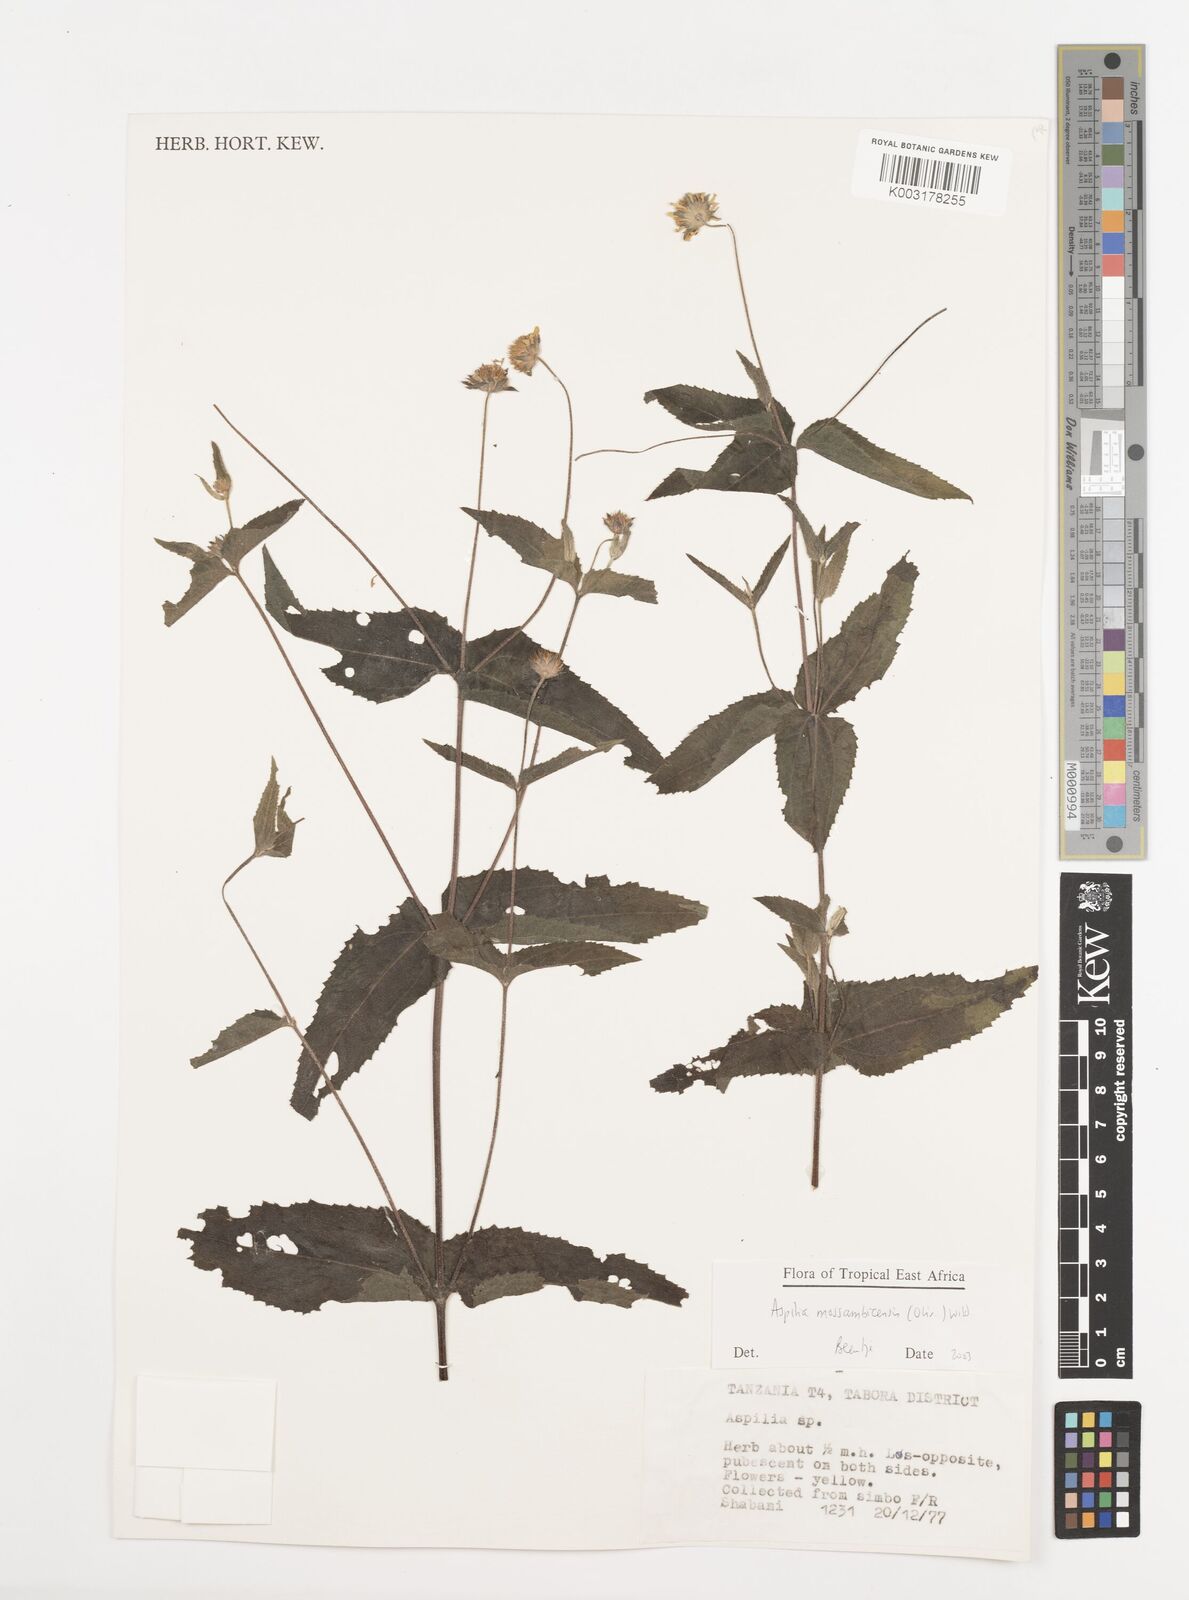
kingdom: Plantae
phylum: Tracheophyta
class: Magnoliopsida
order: Asterales
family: Asteraceae
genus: Aspilia
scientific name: Aspilia mossambicensis
